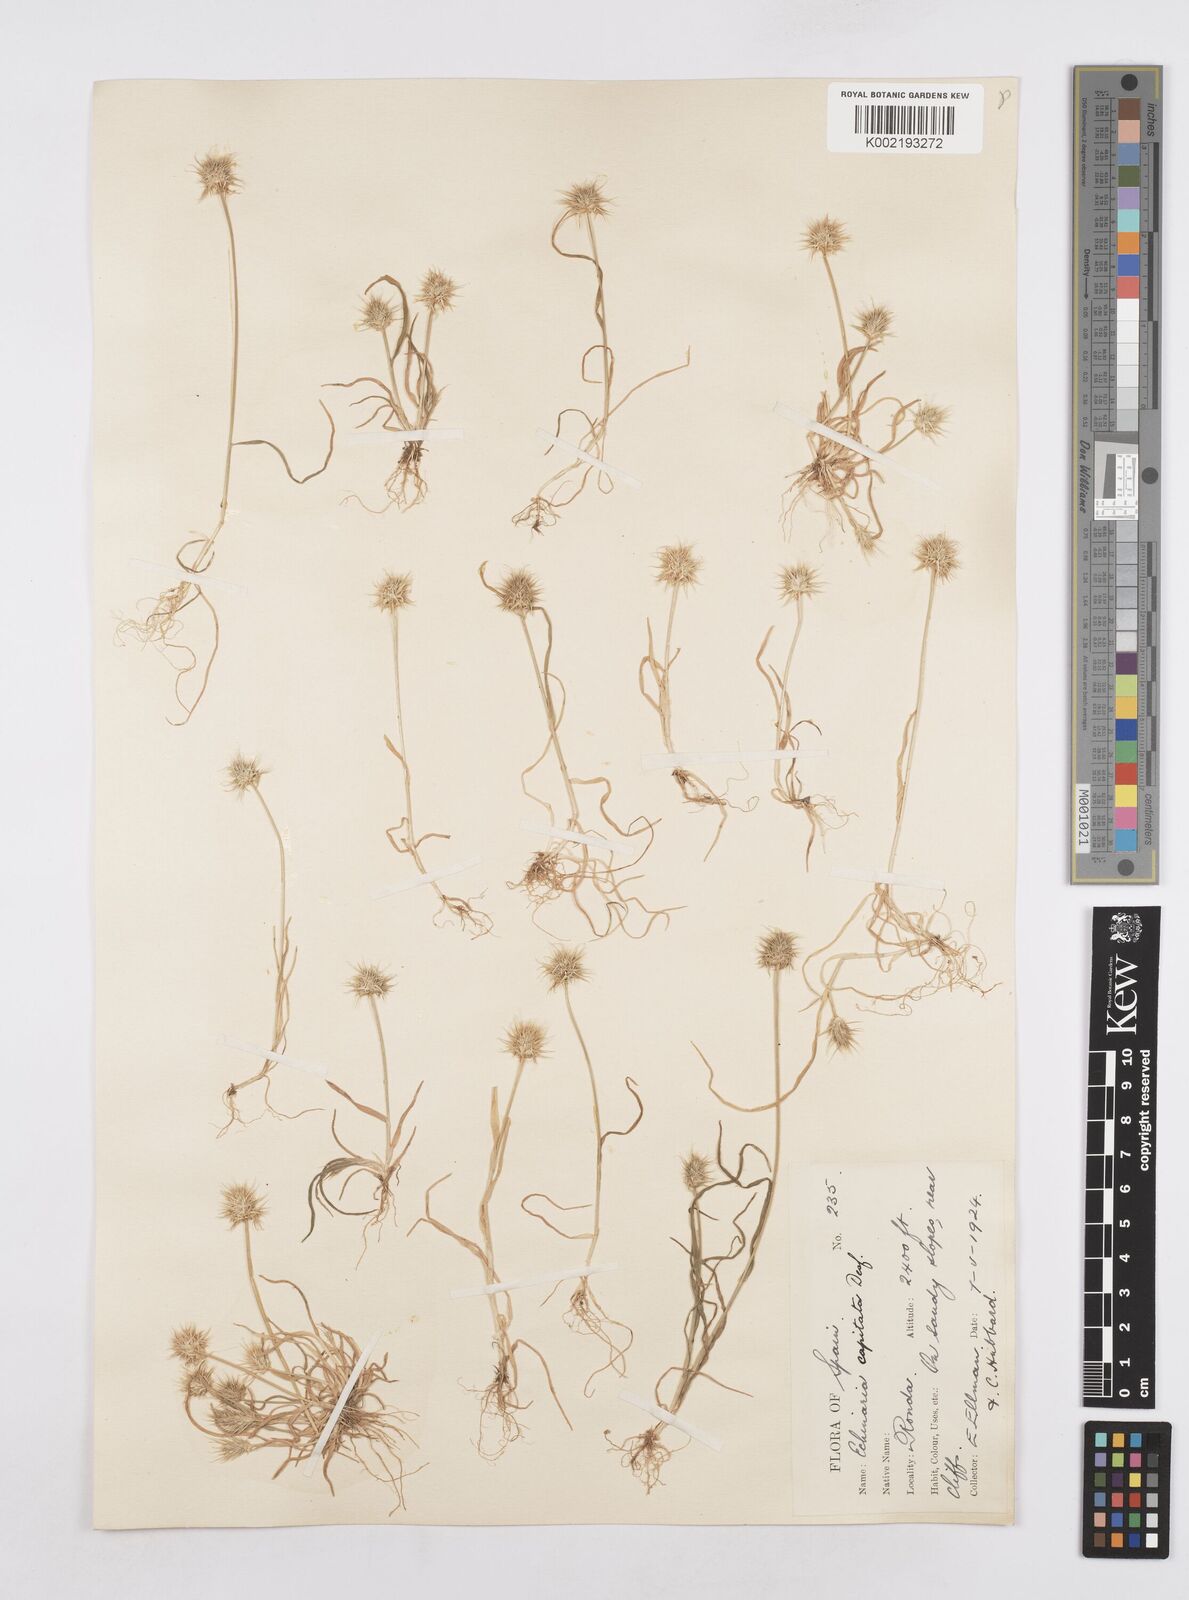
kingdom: Plantae
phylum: Tracheophyta
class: Liliopsida
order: Poales
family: Poaceae
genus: Echinaria
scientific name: Echinaria capitata
